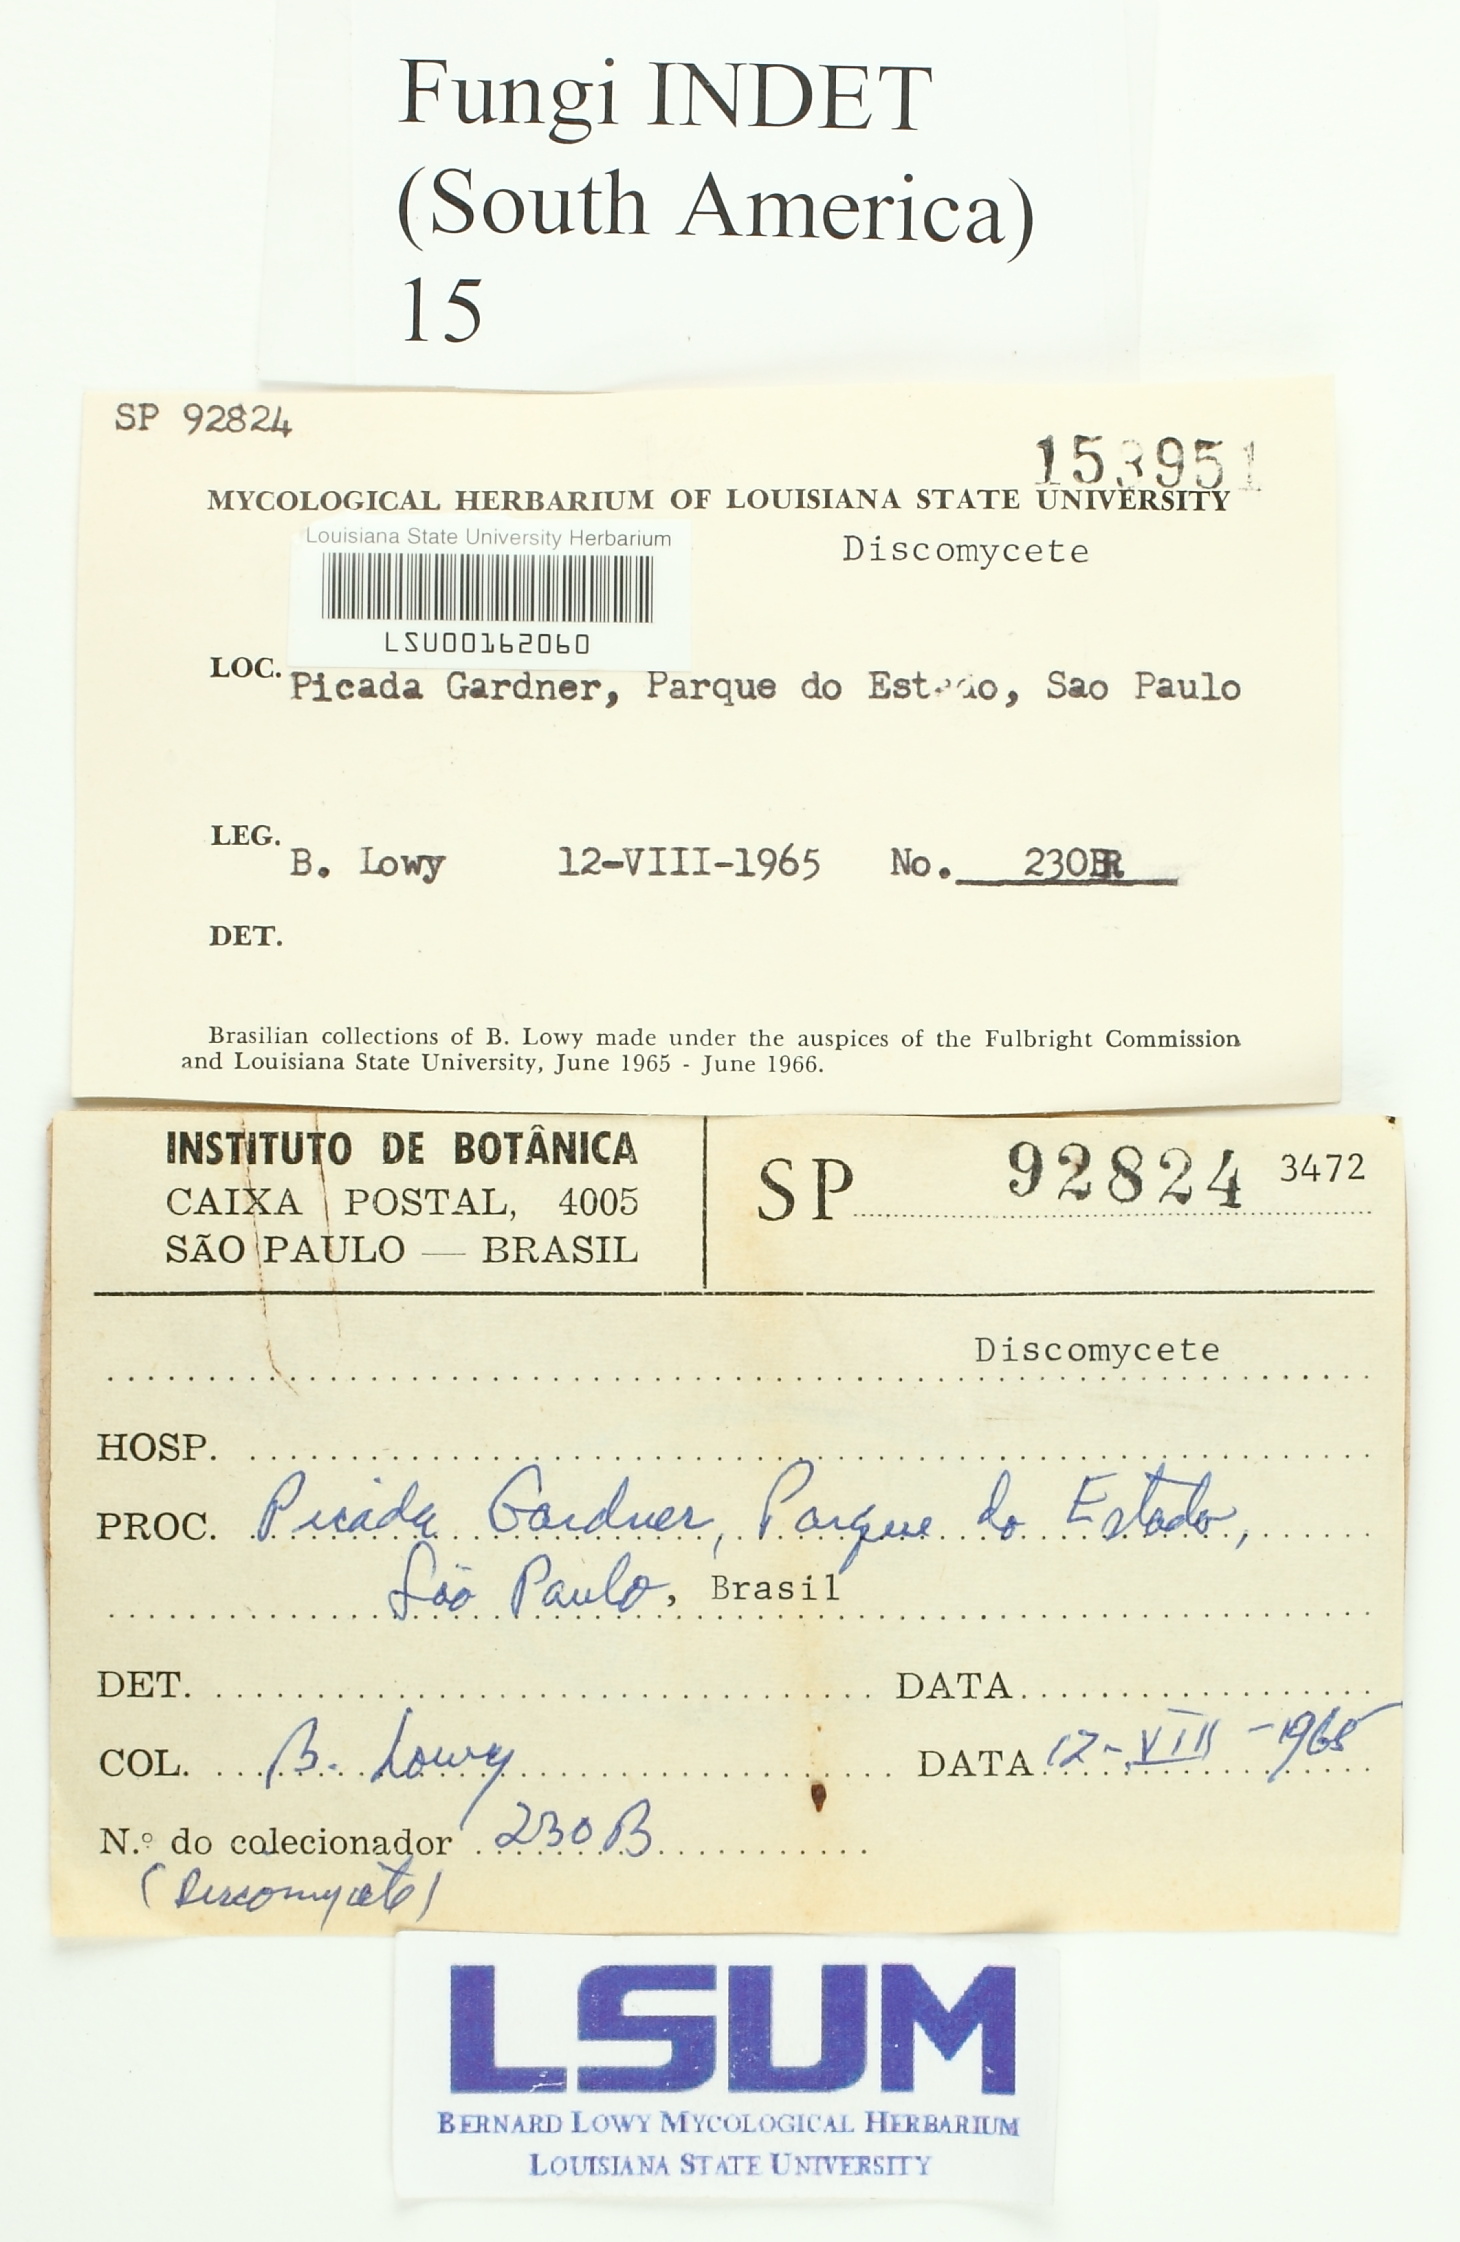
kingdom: Fungi
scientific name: Fungi
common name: Fungi
